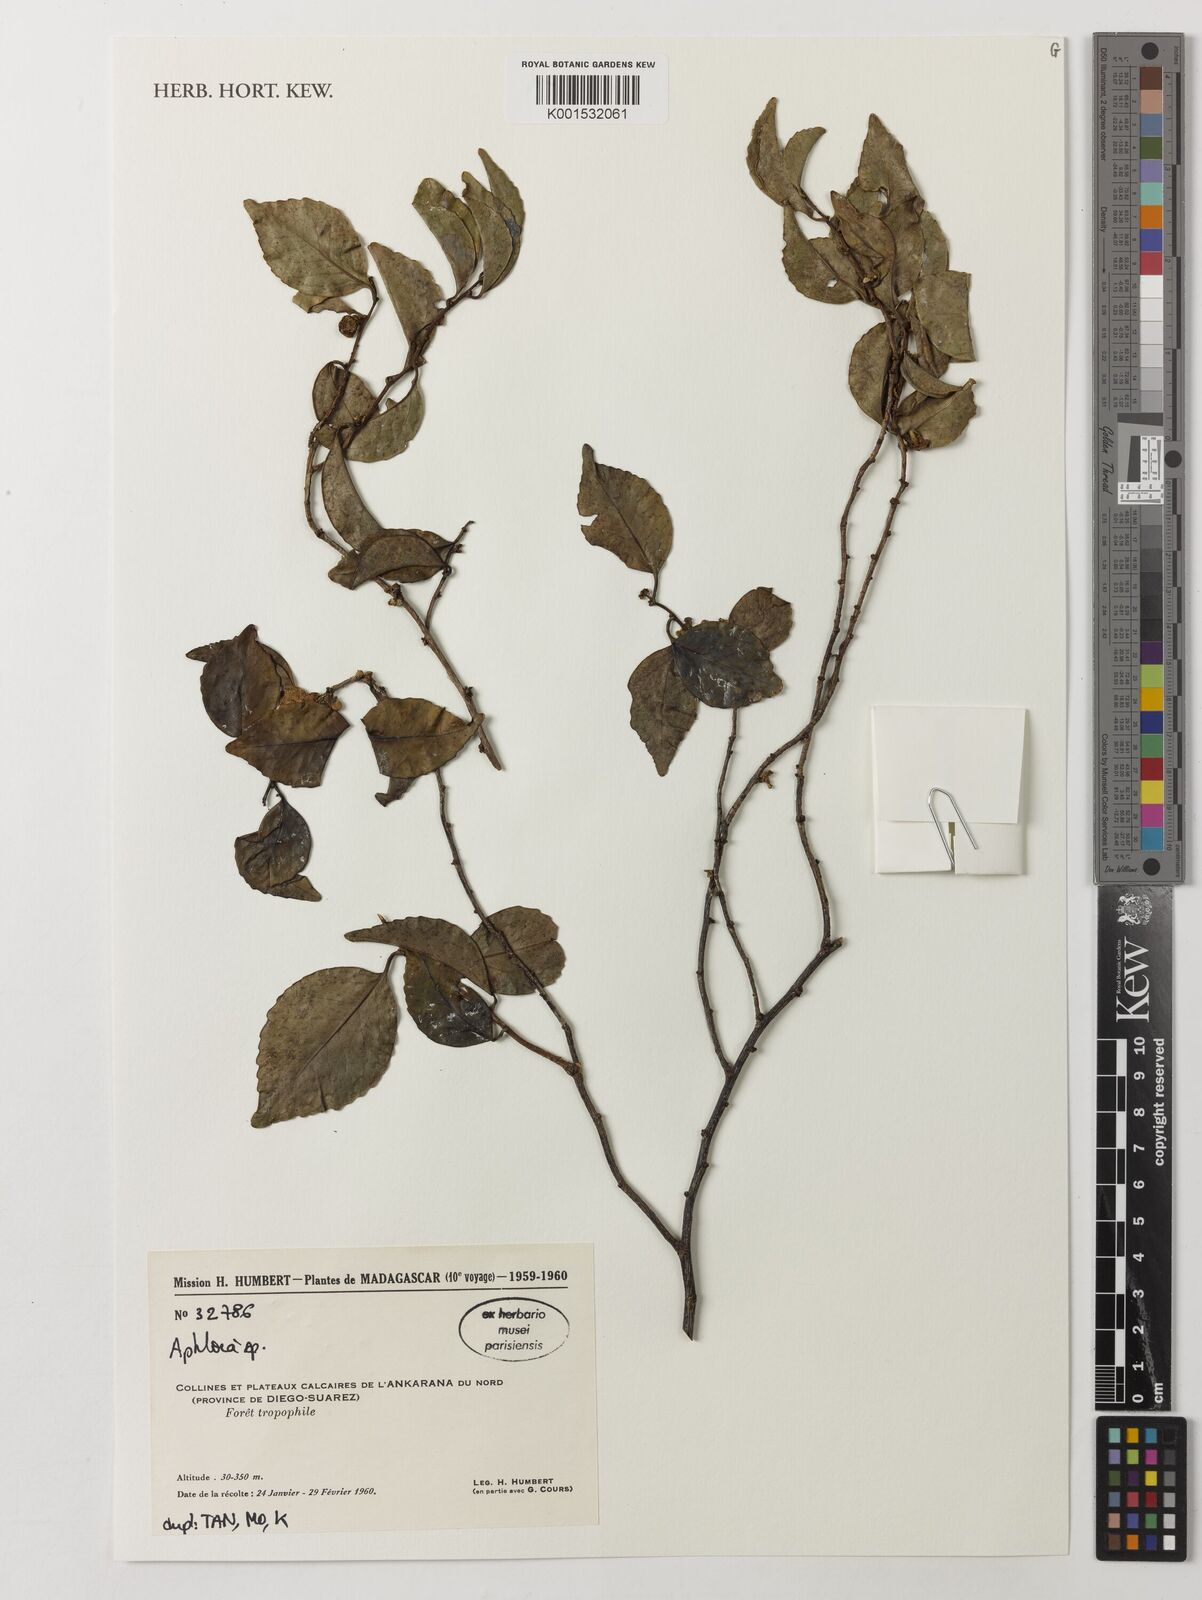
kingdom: Plantae
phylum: Tracheophyta
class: Magnoliopsida
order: Crossosomatales
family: Aphloiaceae
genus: Aphloia
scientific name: Aphloia
